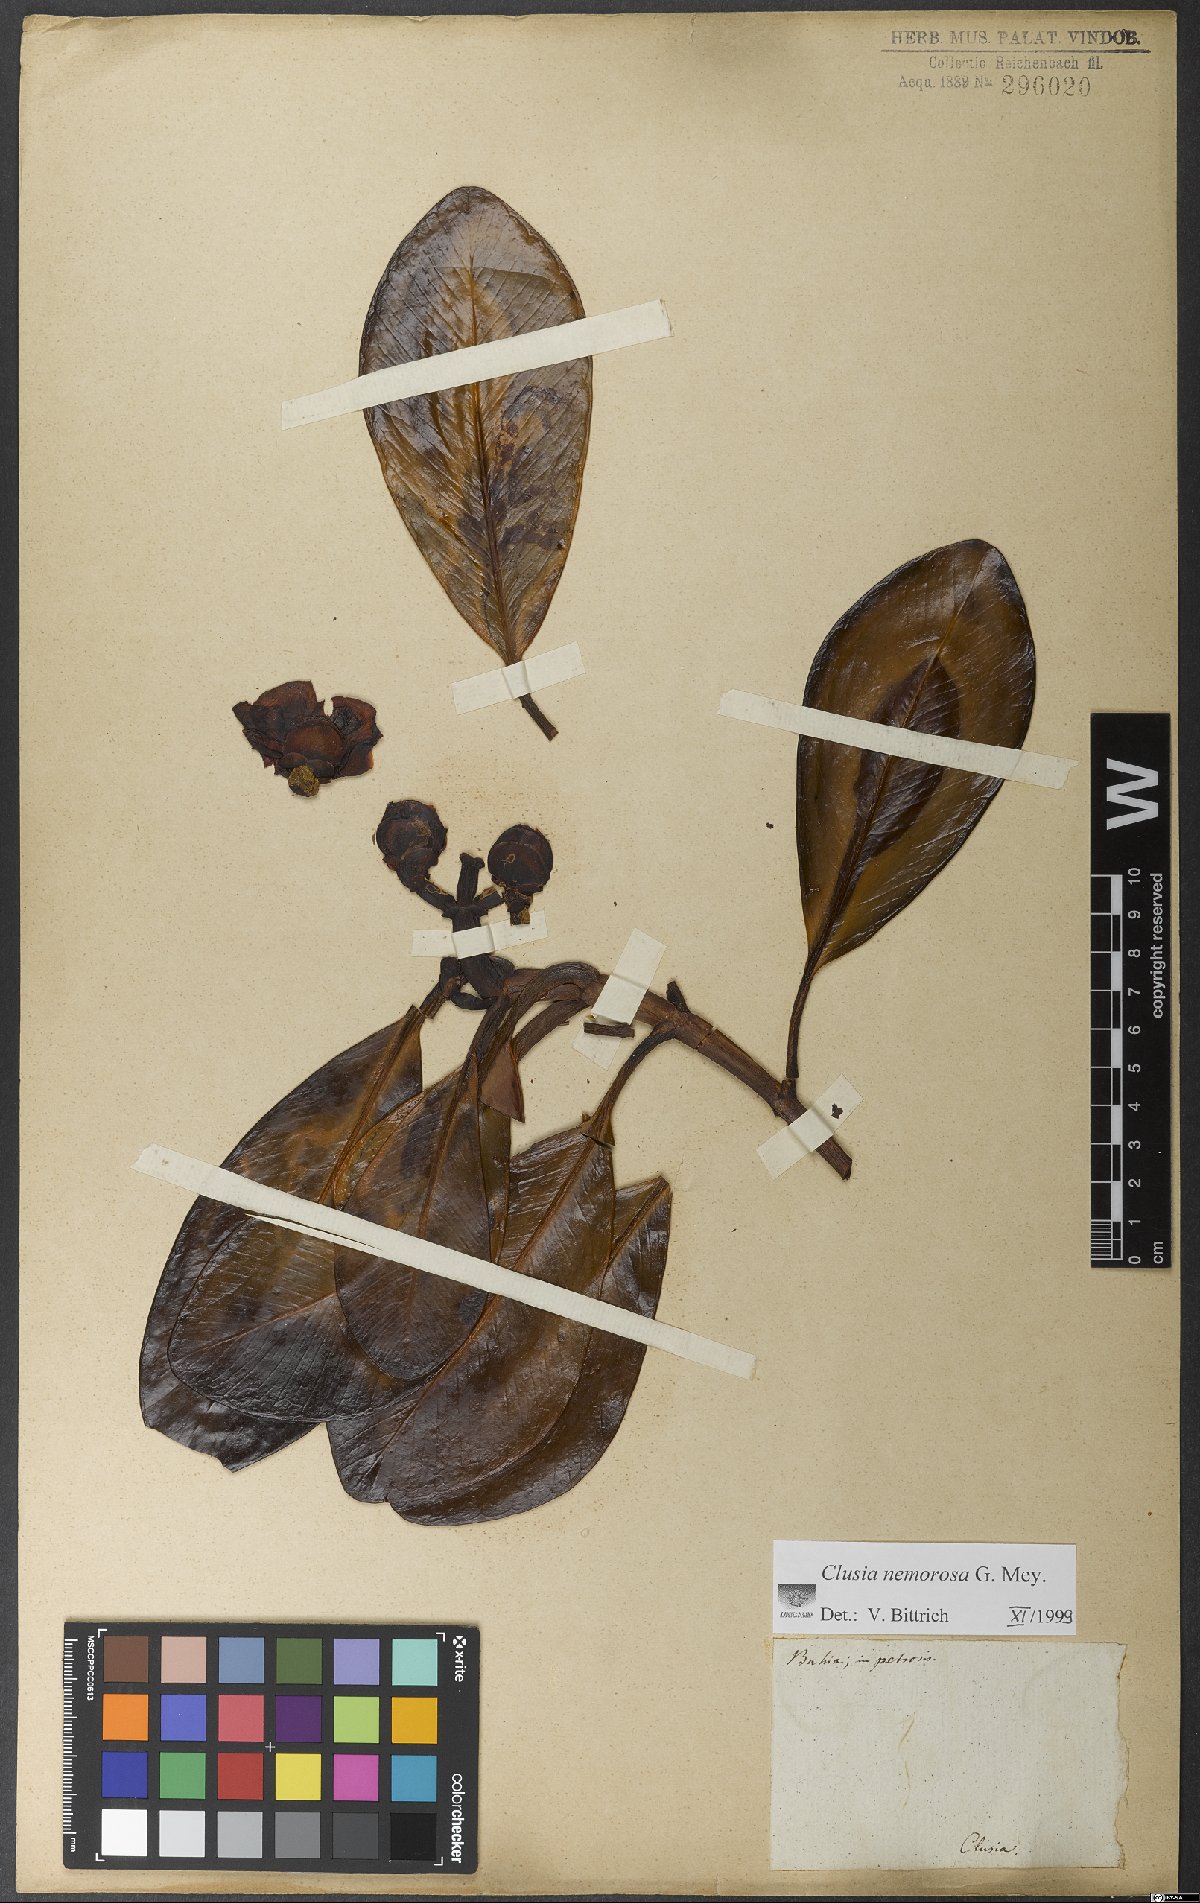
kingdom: Plantae
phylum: Tracheophyta
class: Magnoliopsida
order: Malpighiales
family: Clusiaceae
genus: Clusia
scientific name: Clusia nemorosa
